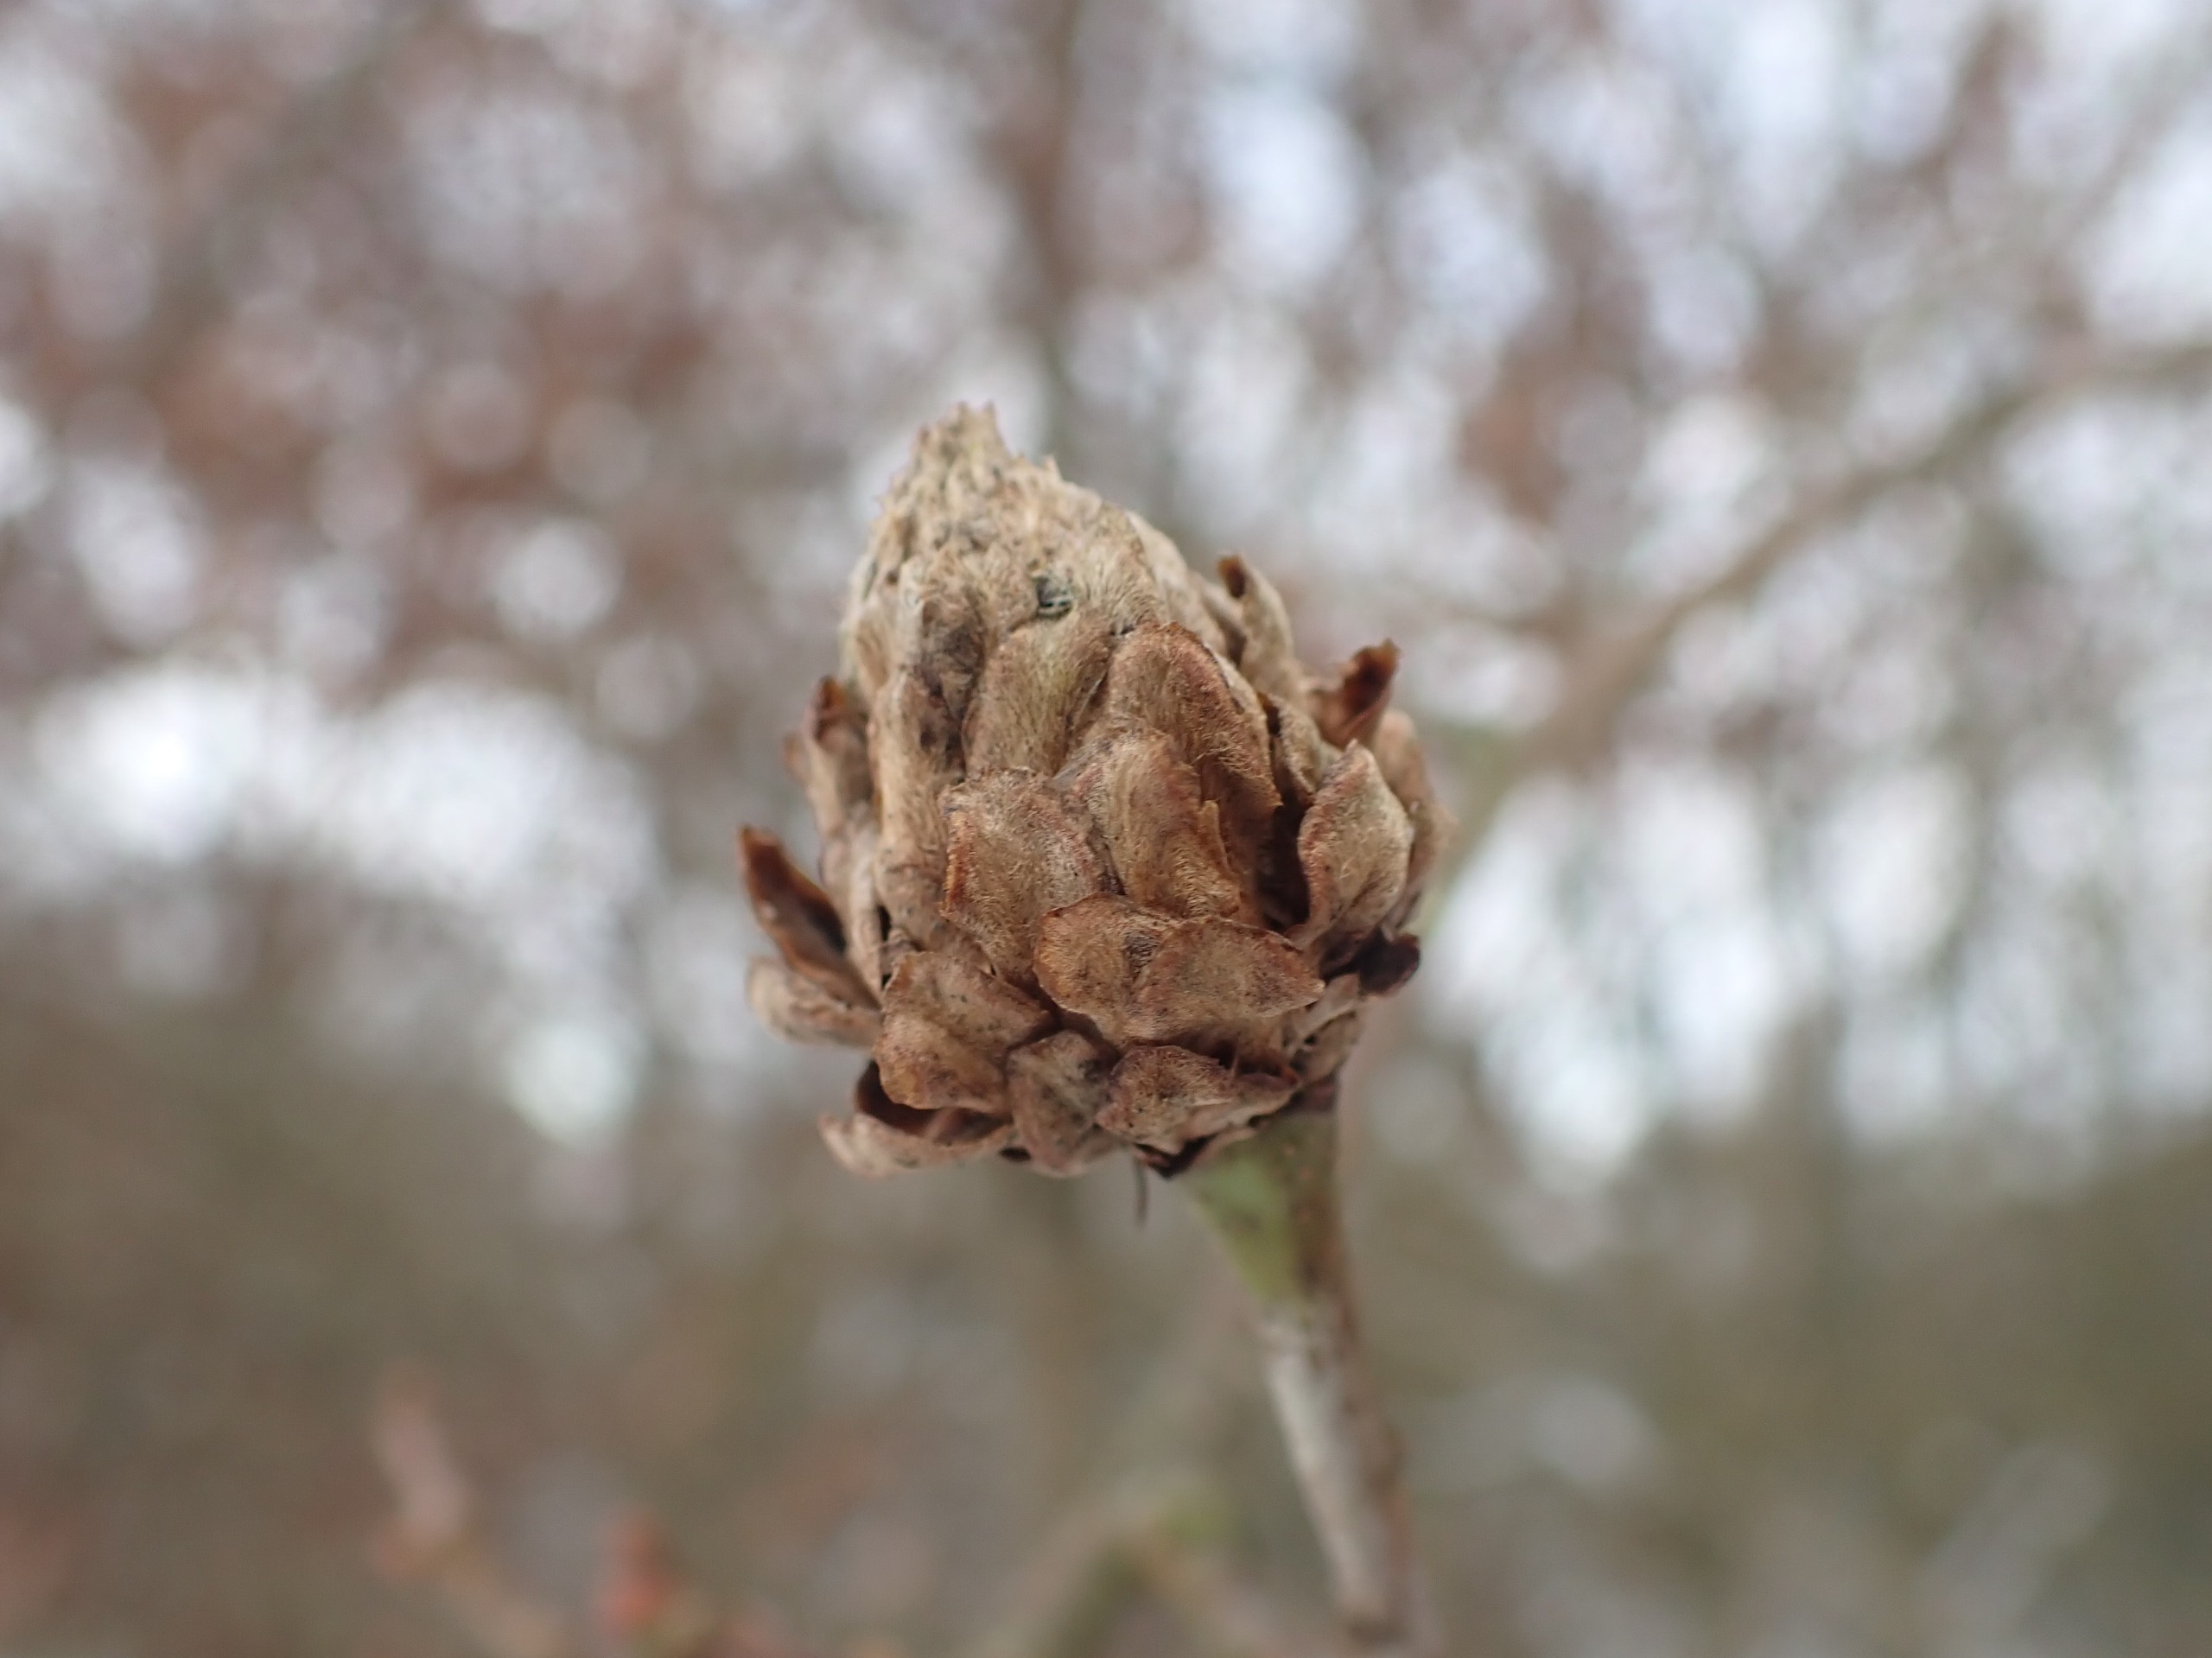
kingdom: Animalia
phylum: Arthropoda
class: Insecta
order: Hymenoptera
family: Cynipidae
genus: Andricus
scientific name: Andricus foecundatrix
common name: Artiskokgalhveps
